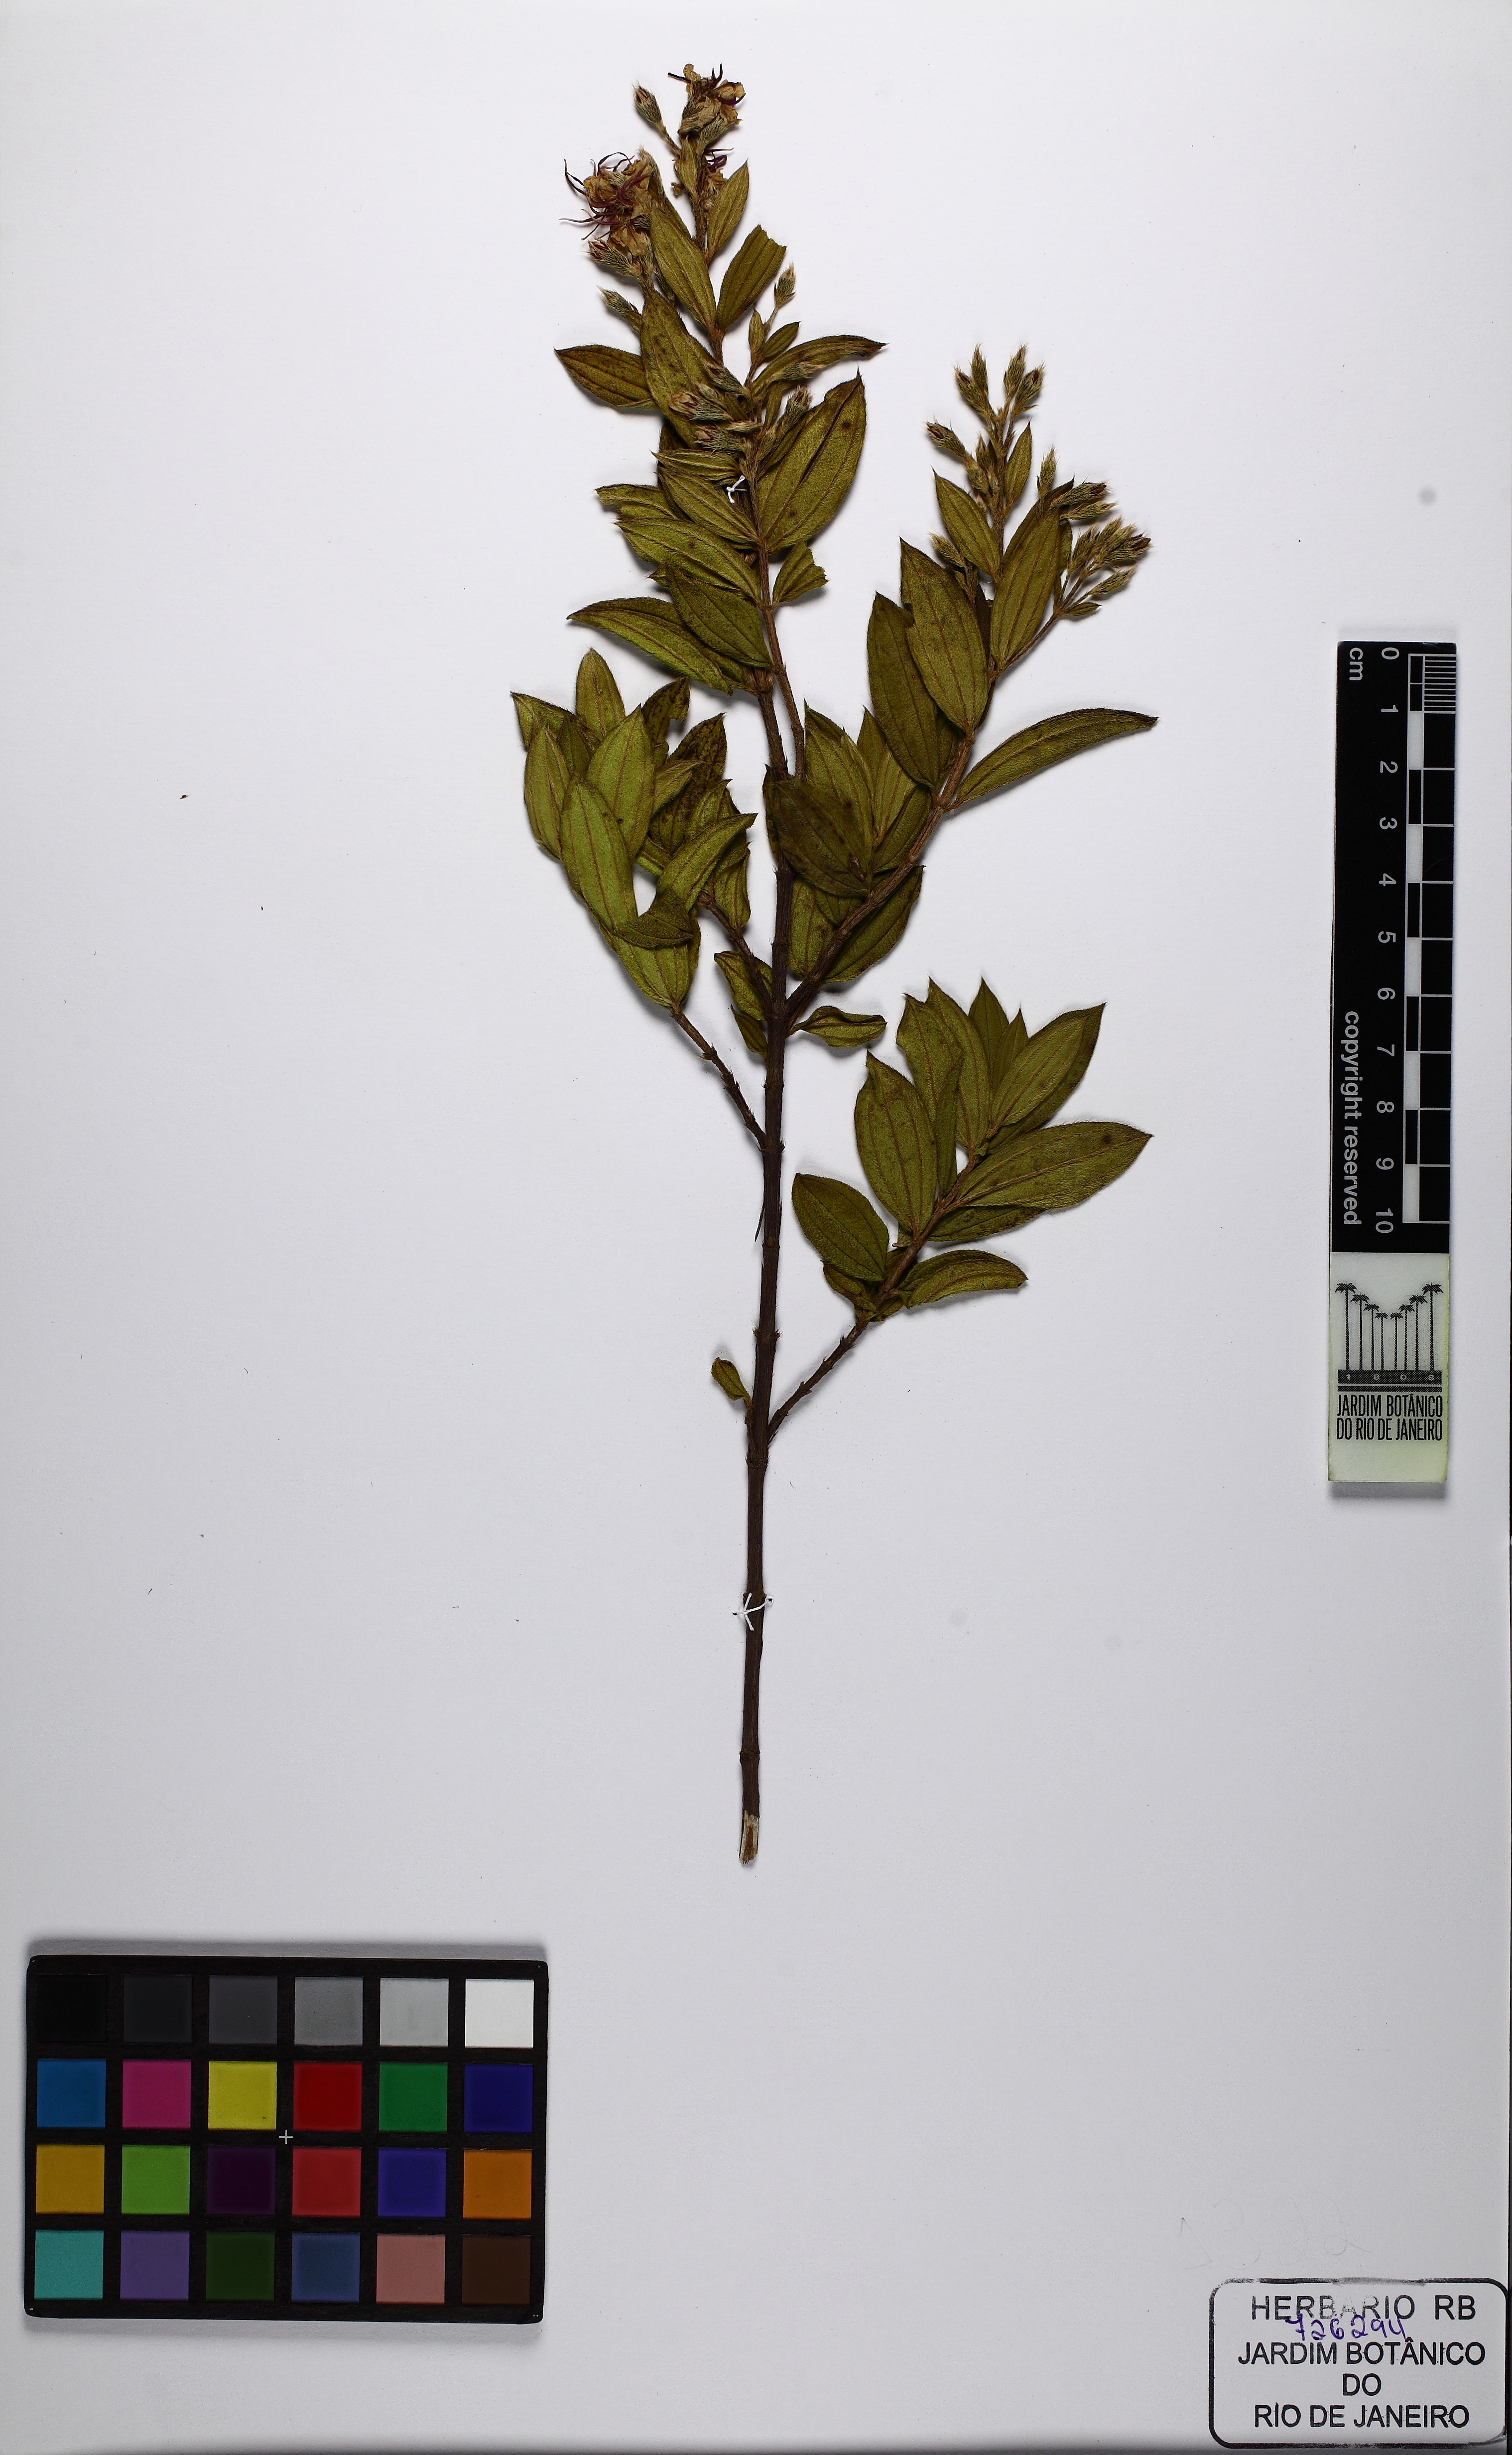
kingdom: Plantae
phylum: Tracheophyta
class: Magnoliopsida
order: Myrtales
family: Melastomataceae
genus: Pleroma
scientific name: Pleroma martiale
